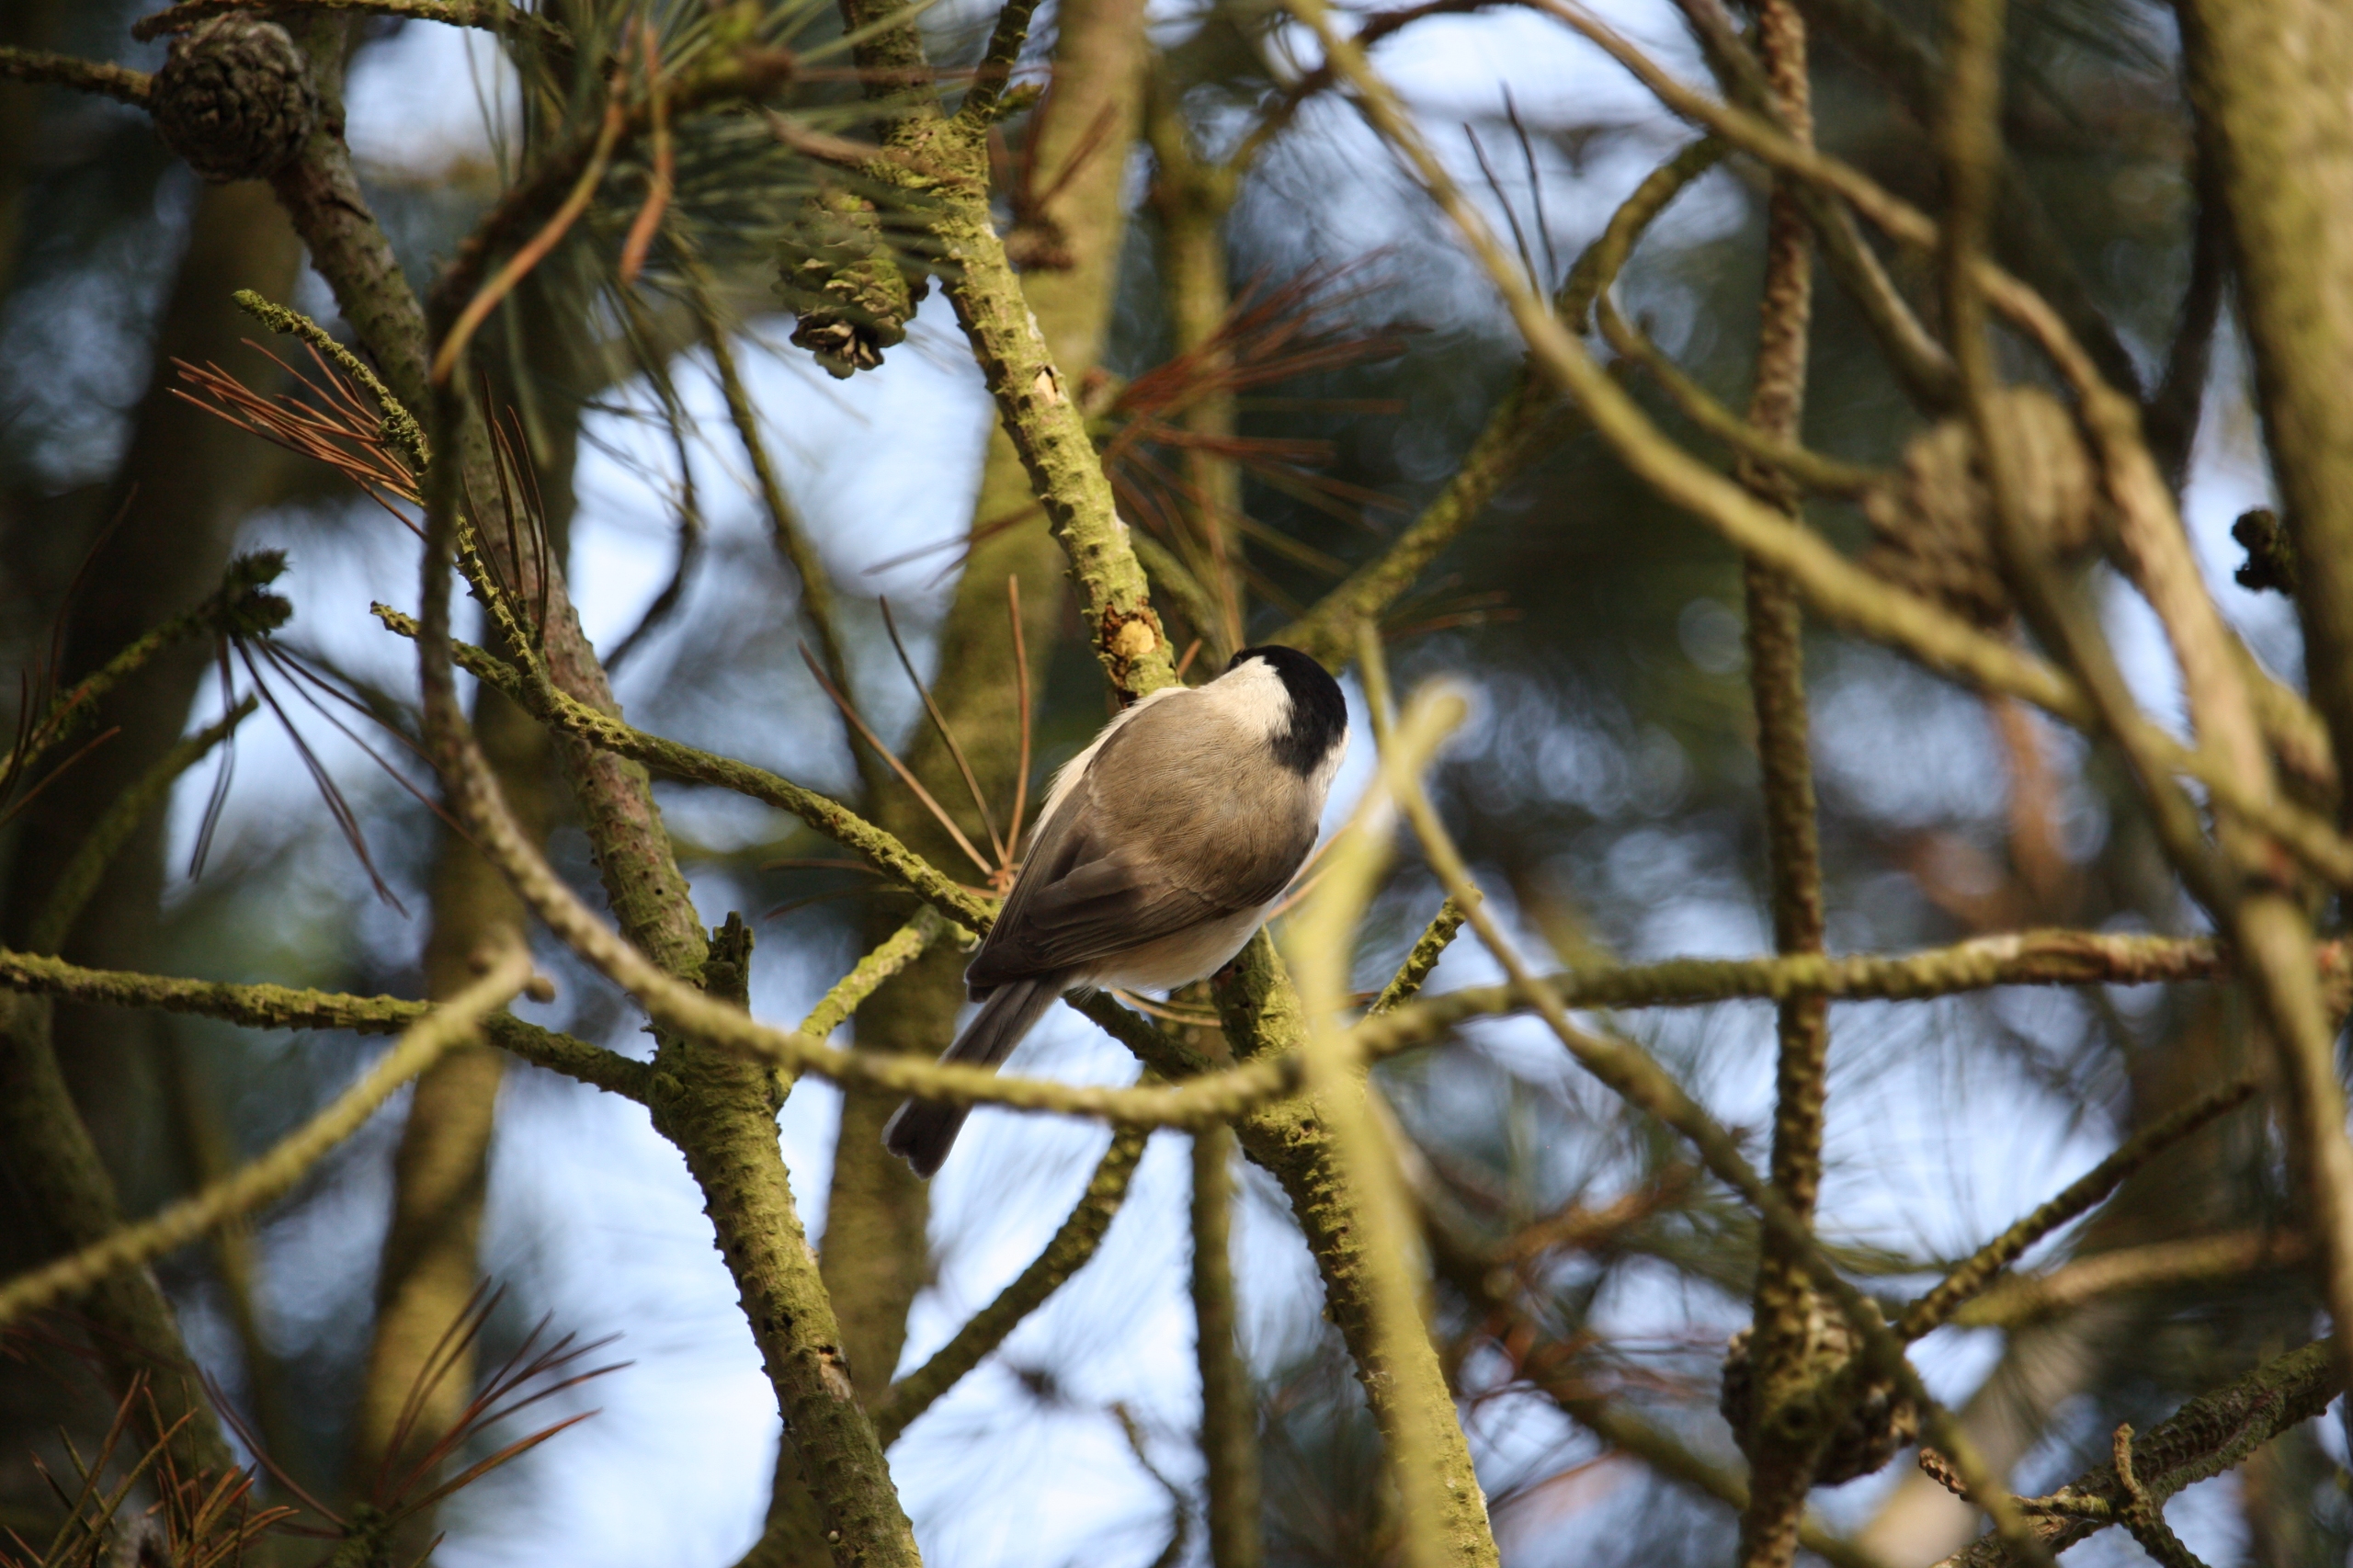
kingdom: Animalia
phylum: Chordata
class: Aves
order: Passeriformes
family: Paridae
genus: Poecile
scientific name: Poecile palustris
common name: Sumpmejse
